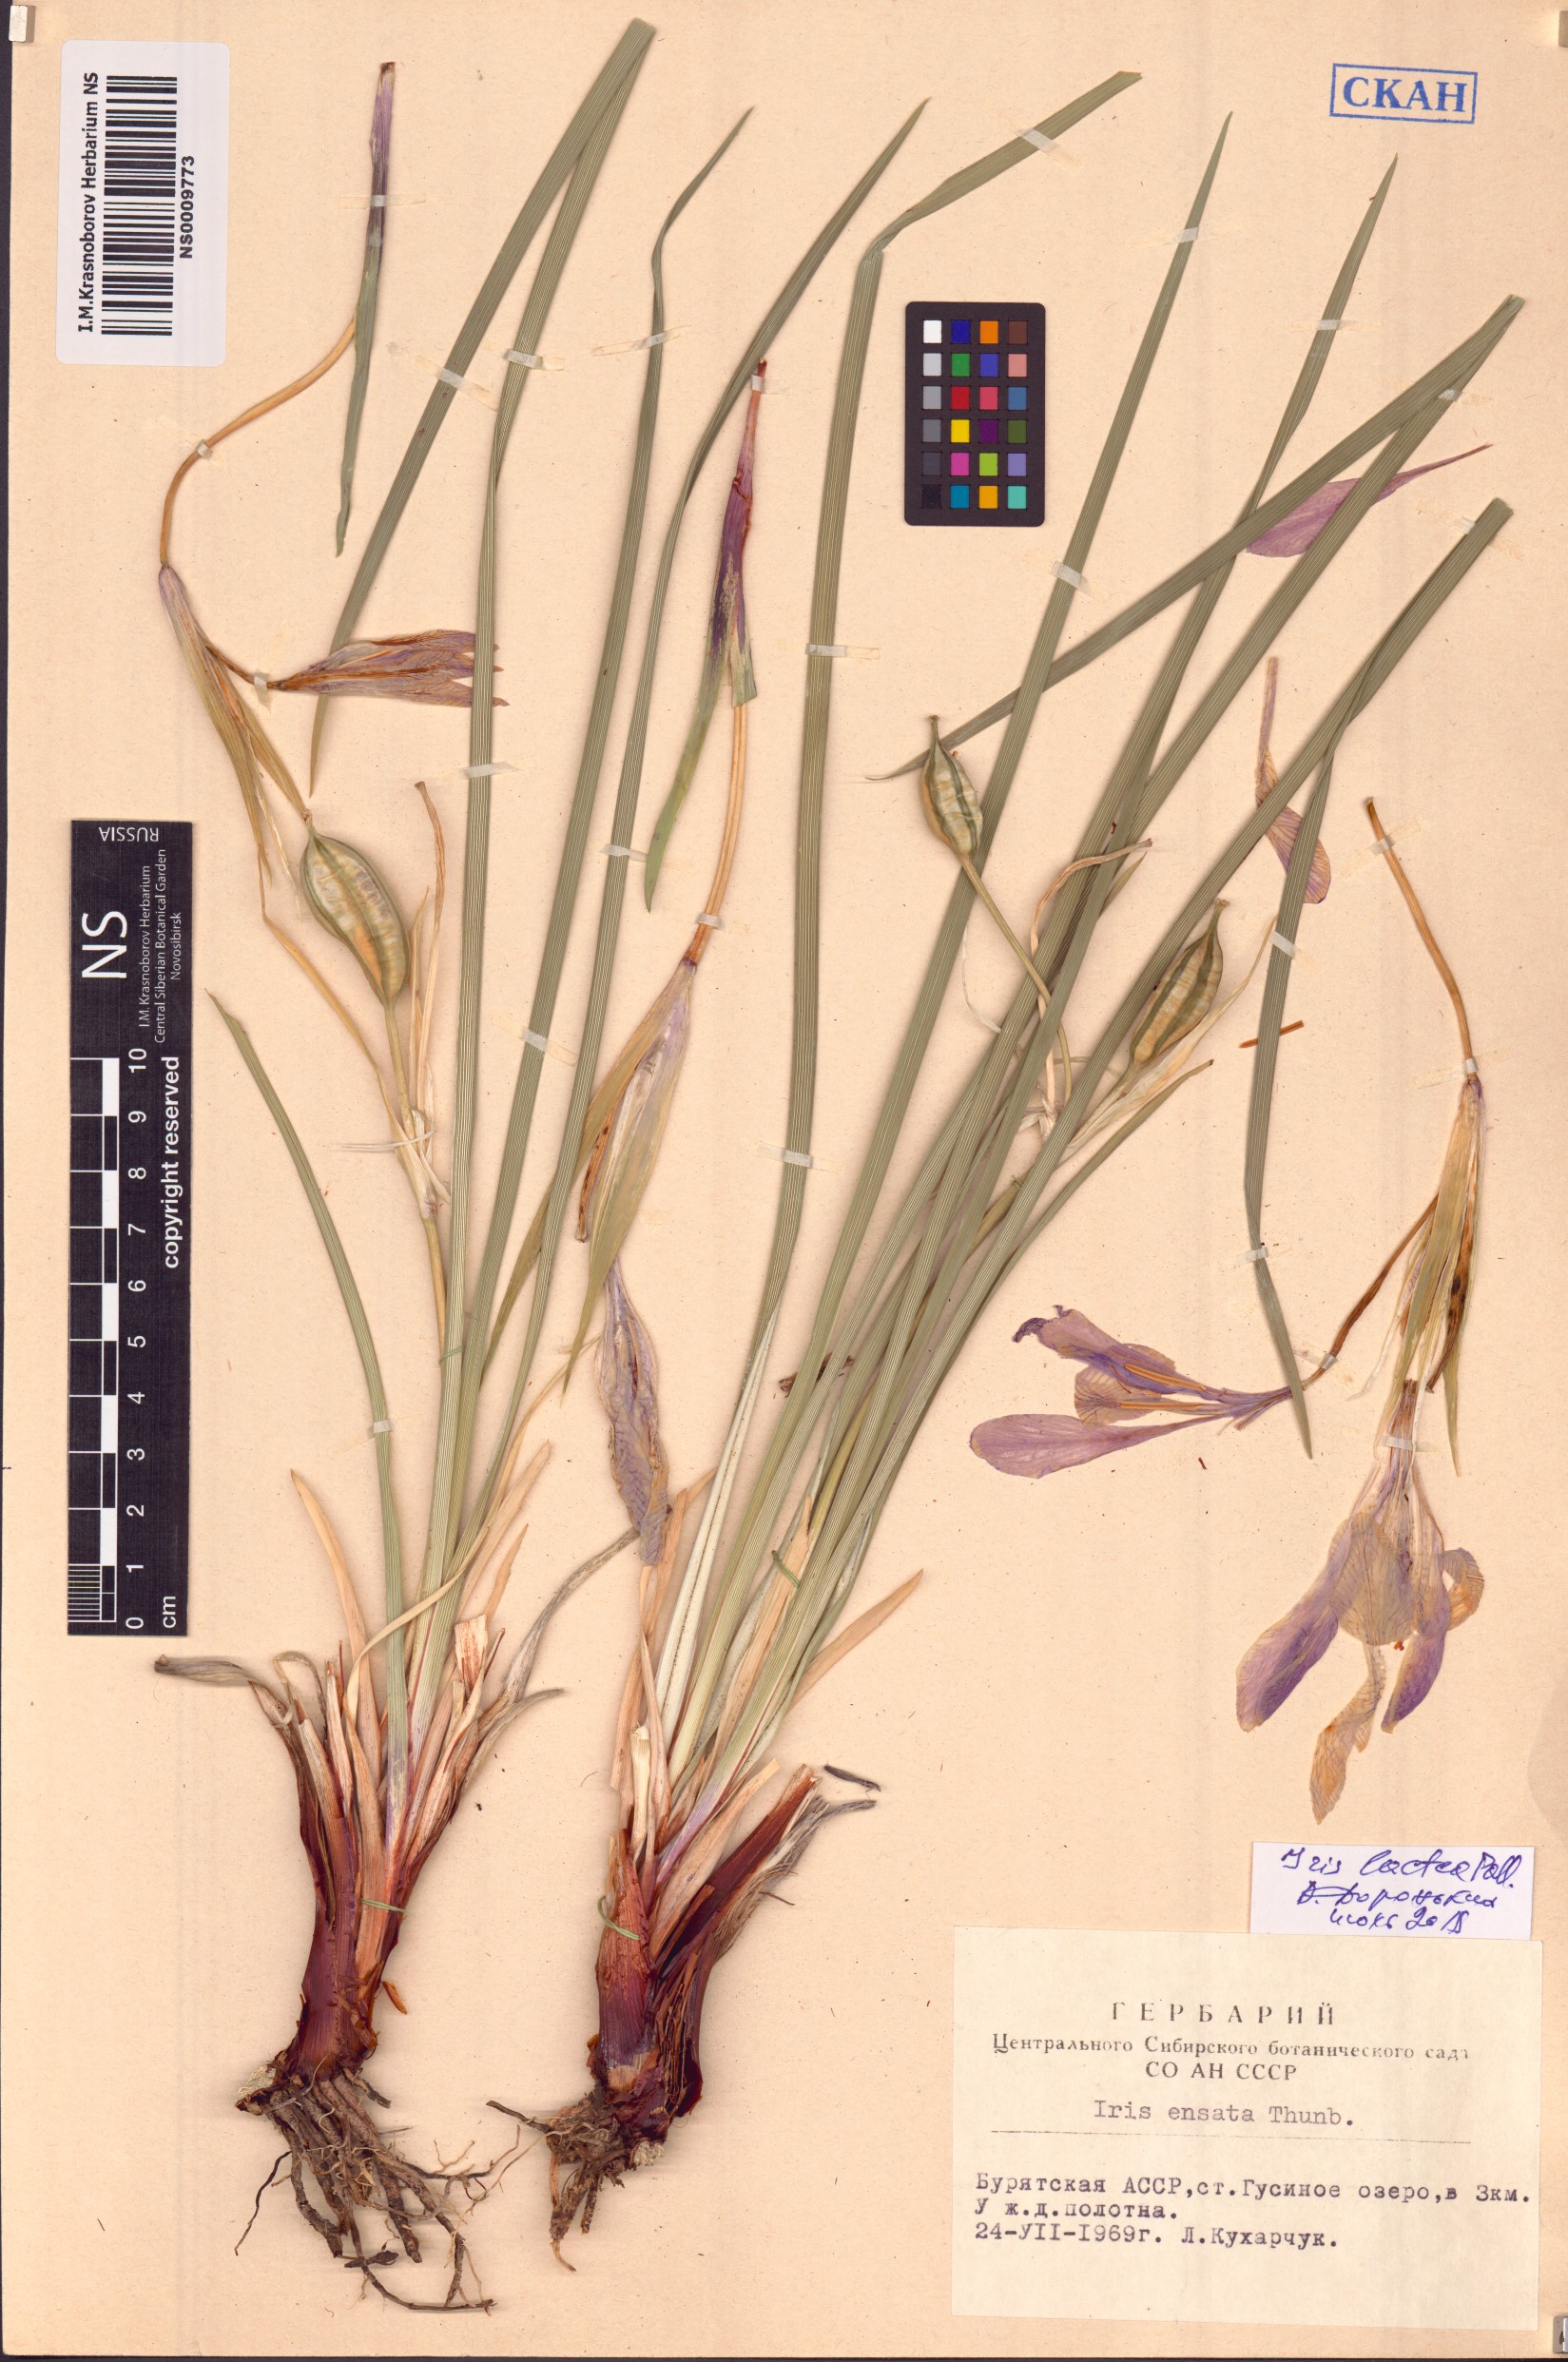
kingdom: Plantae
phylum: Tracheophyta
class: Liliopsida
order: Asparagales
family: Iridaceae
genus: Iris
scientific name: Iris lactea
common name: White-flower chinese iris
